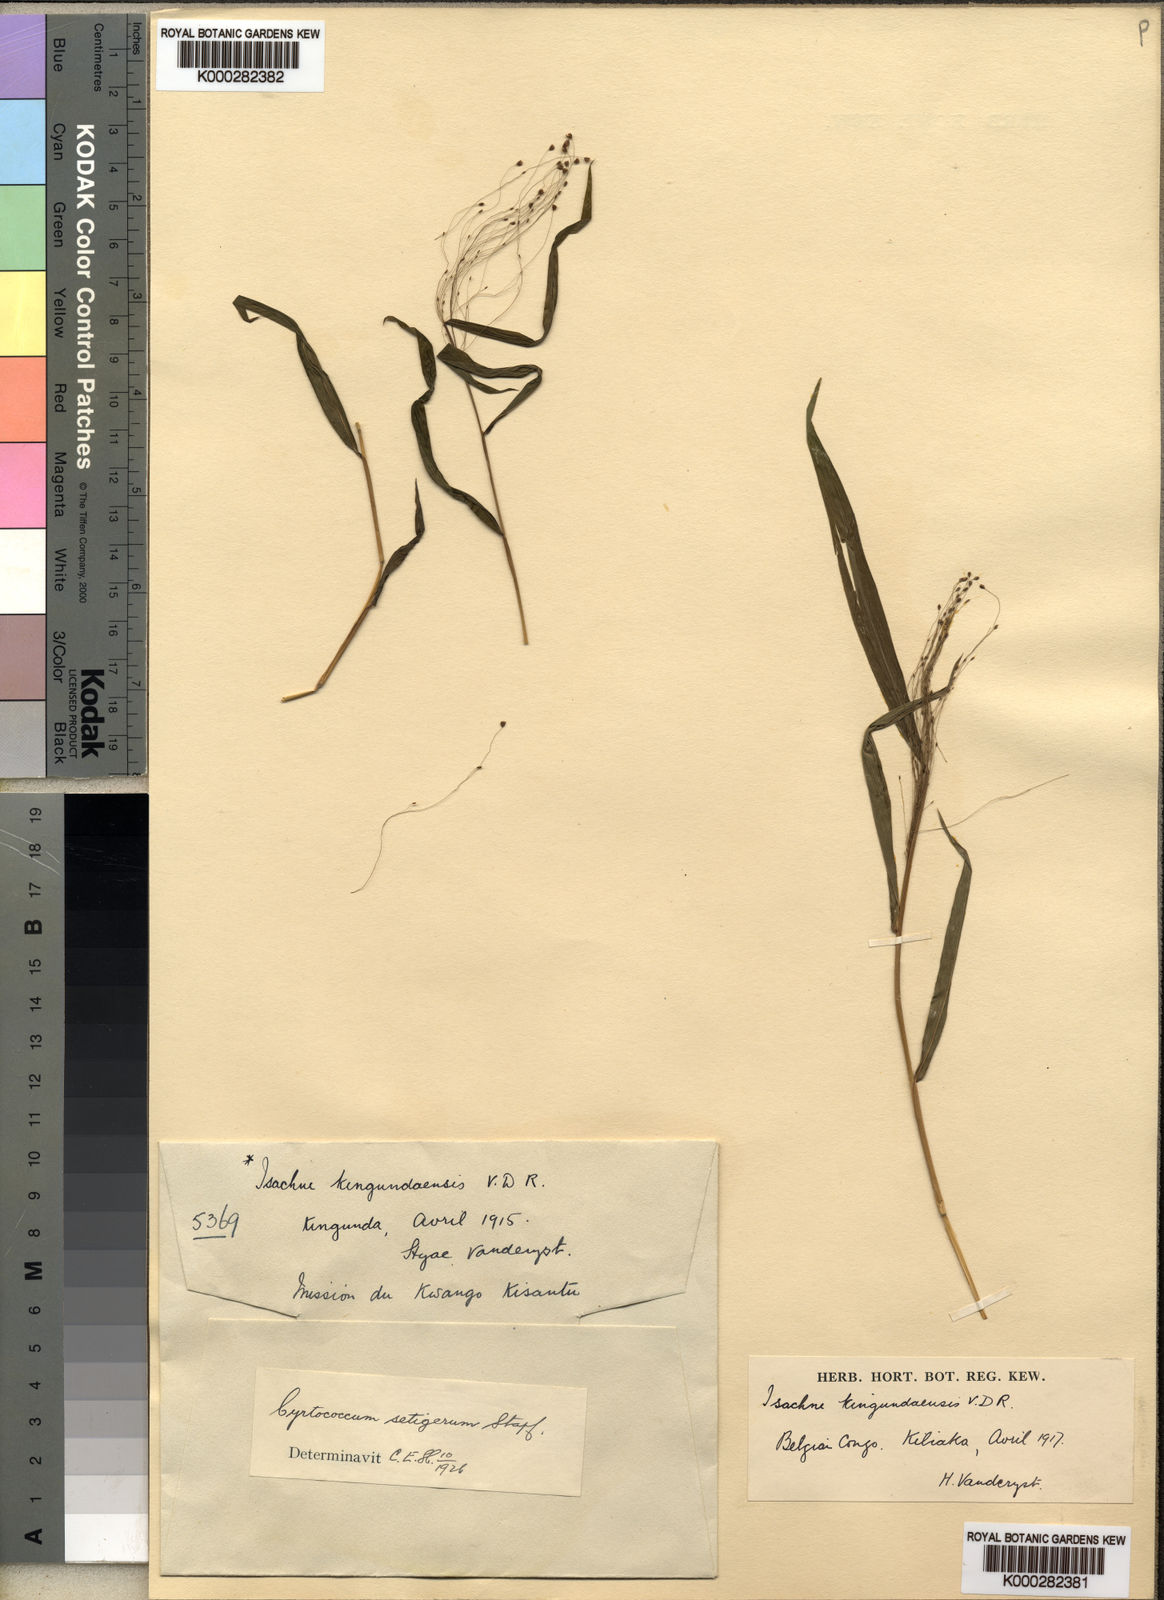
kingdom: Plantae
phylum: Tracheophyta
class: Liliopsida
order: Poales
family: Poaceae
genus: Cyrtococcum
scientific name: Cyrtococcum chaetophoron
